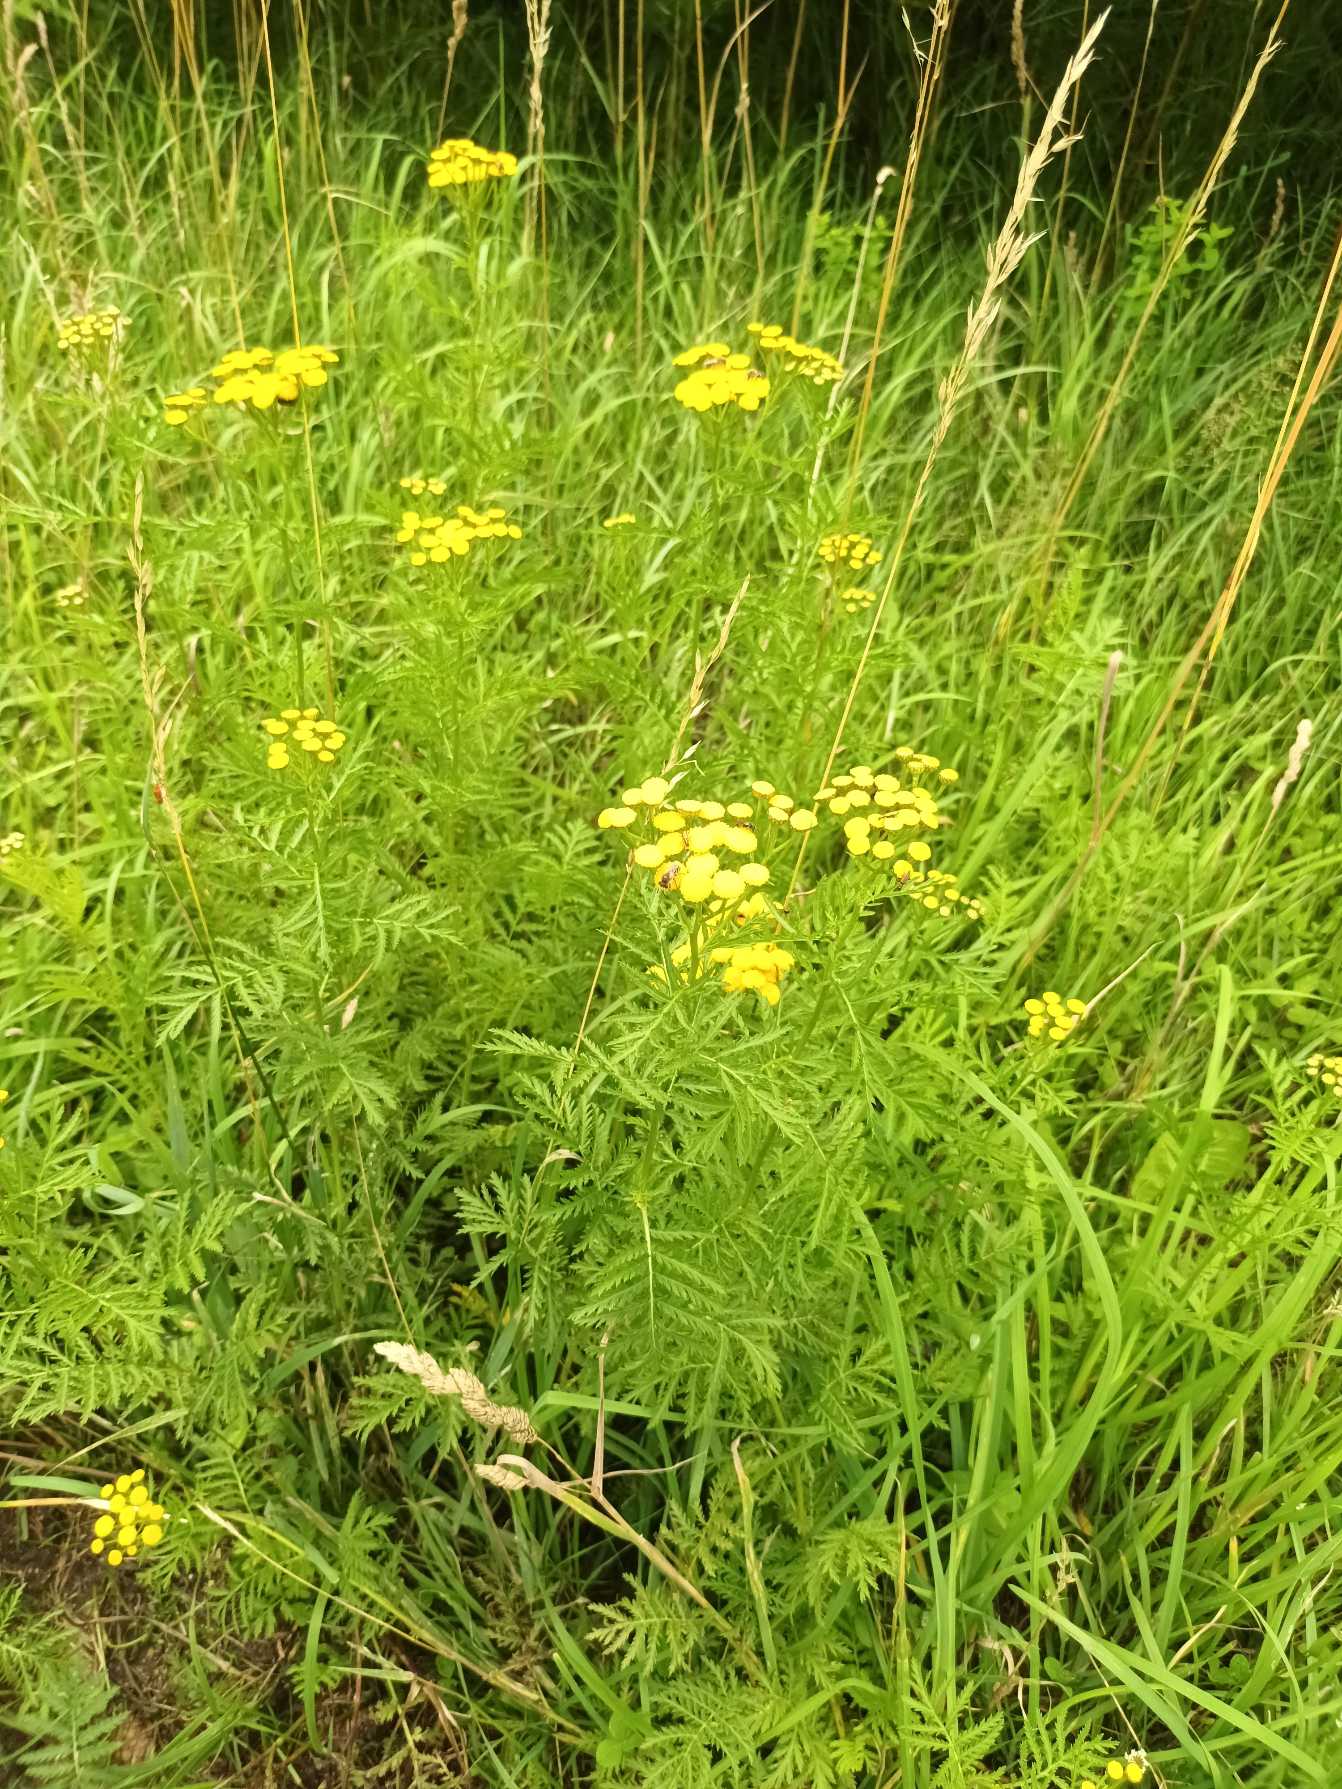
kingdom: Plantae
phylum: Tracheophyta
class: Magnoliopsida
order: Asterales
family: Asteraceae
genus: Tanacetum
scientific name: Tanacetum vulgare
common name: Rejnfan
